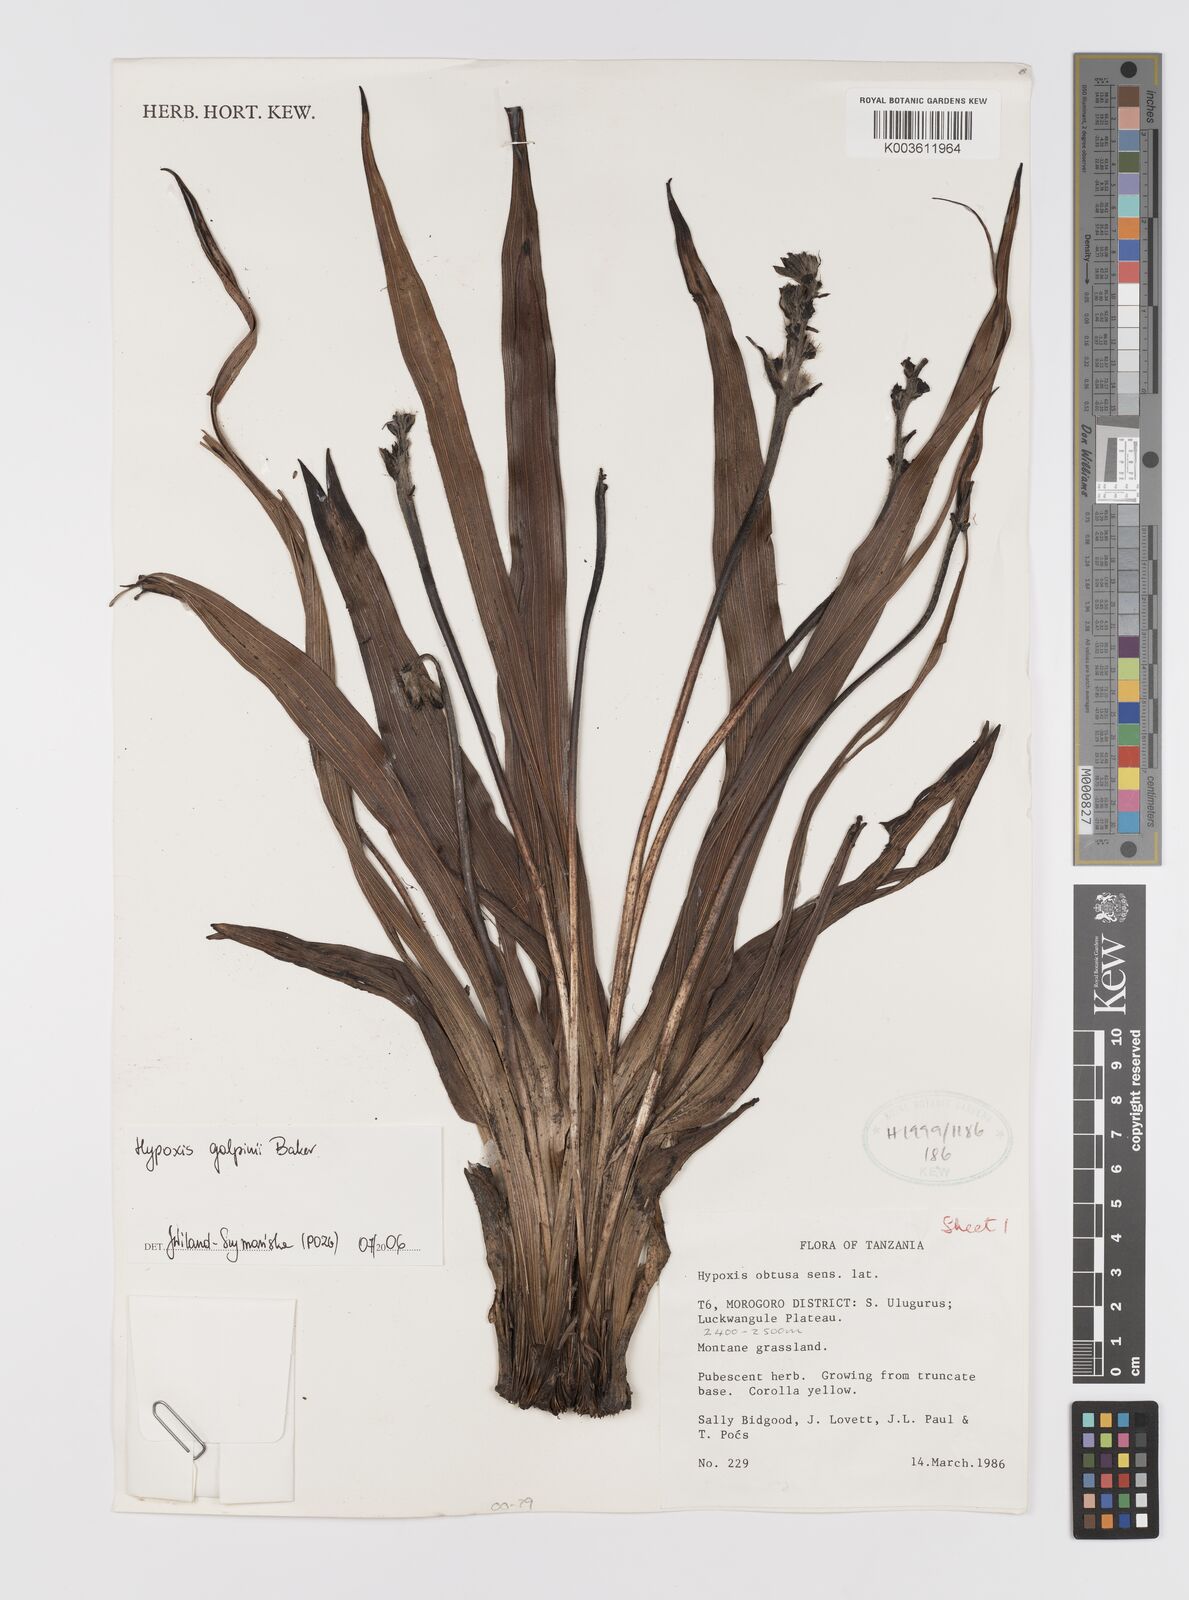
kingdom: Plantae
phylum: Tracheophyta
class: Liliopsida
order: Asparagales
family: Hypoxidaceae
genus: Hypoxis
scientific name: Hypoxis galpinii
